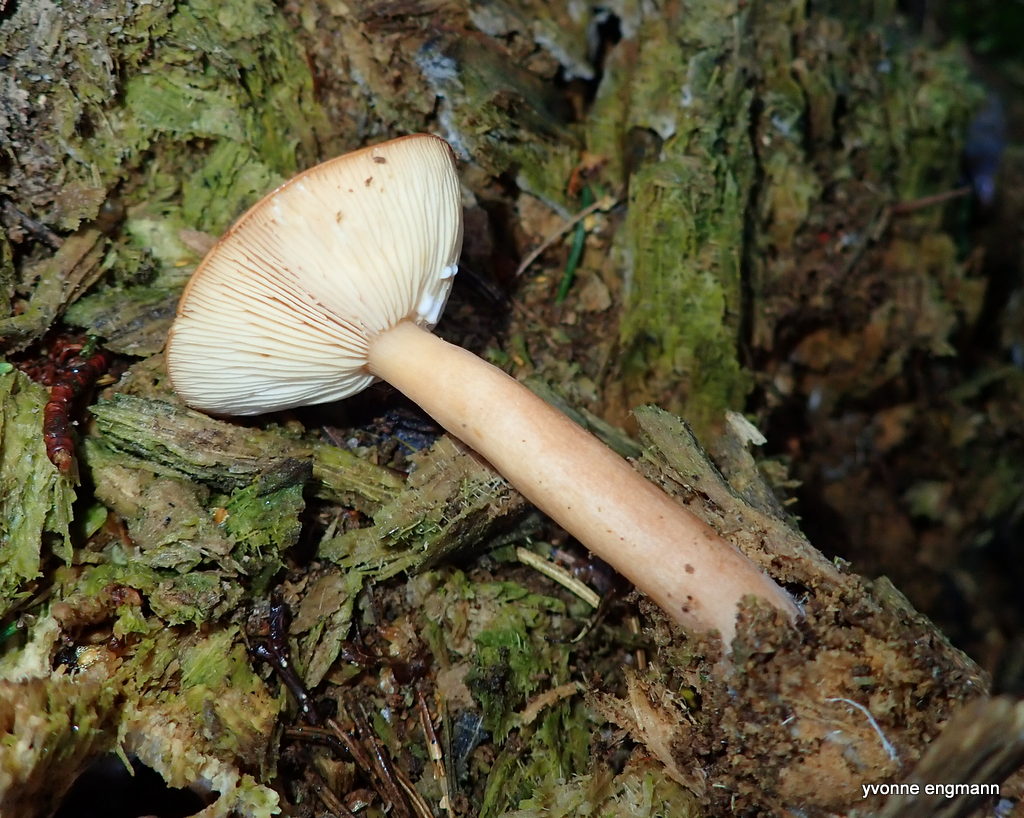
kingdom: Fungi
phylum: Basidiomycota
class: Agaricomycetes
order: Russulales
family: Russulaceae
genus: Lactarius
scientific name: Lactarius
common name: mælkehat
